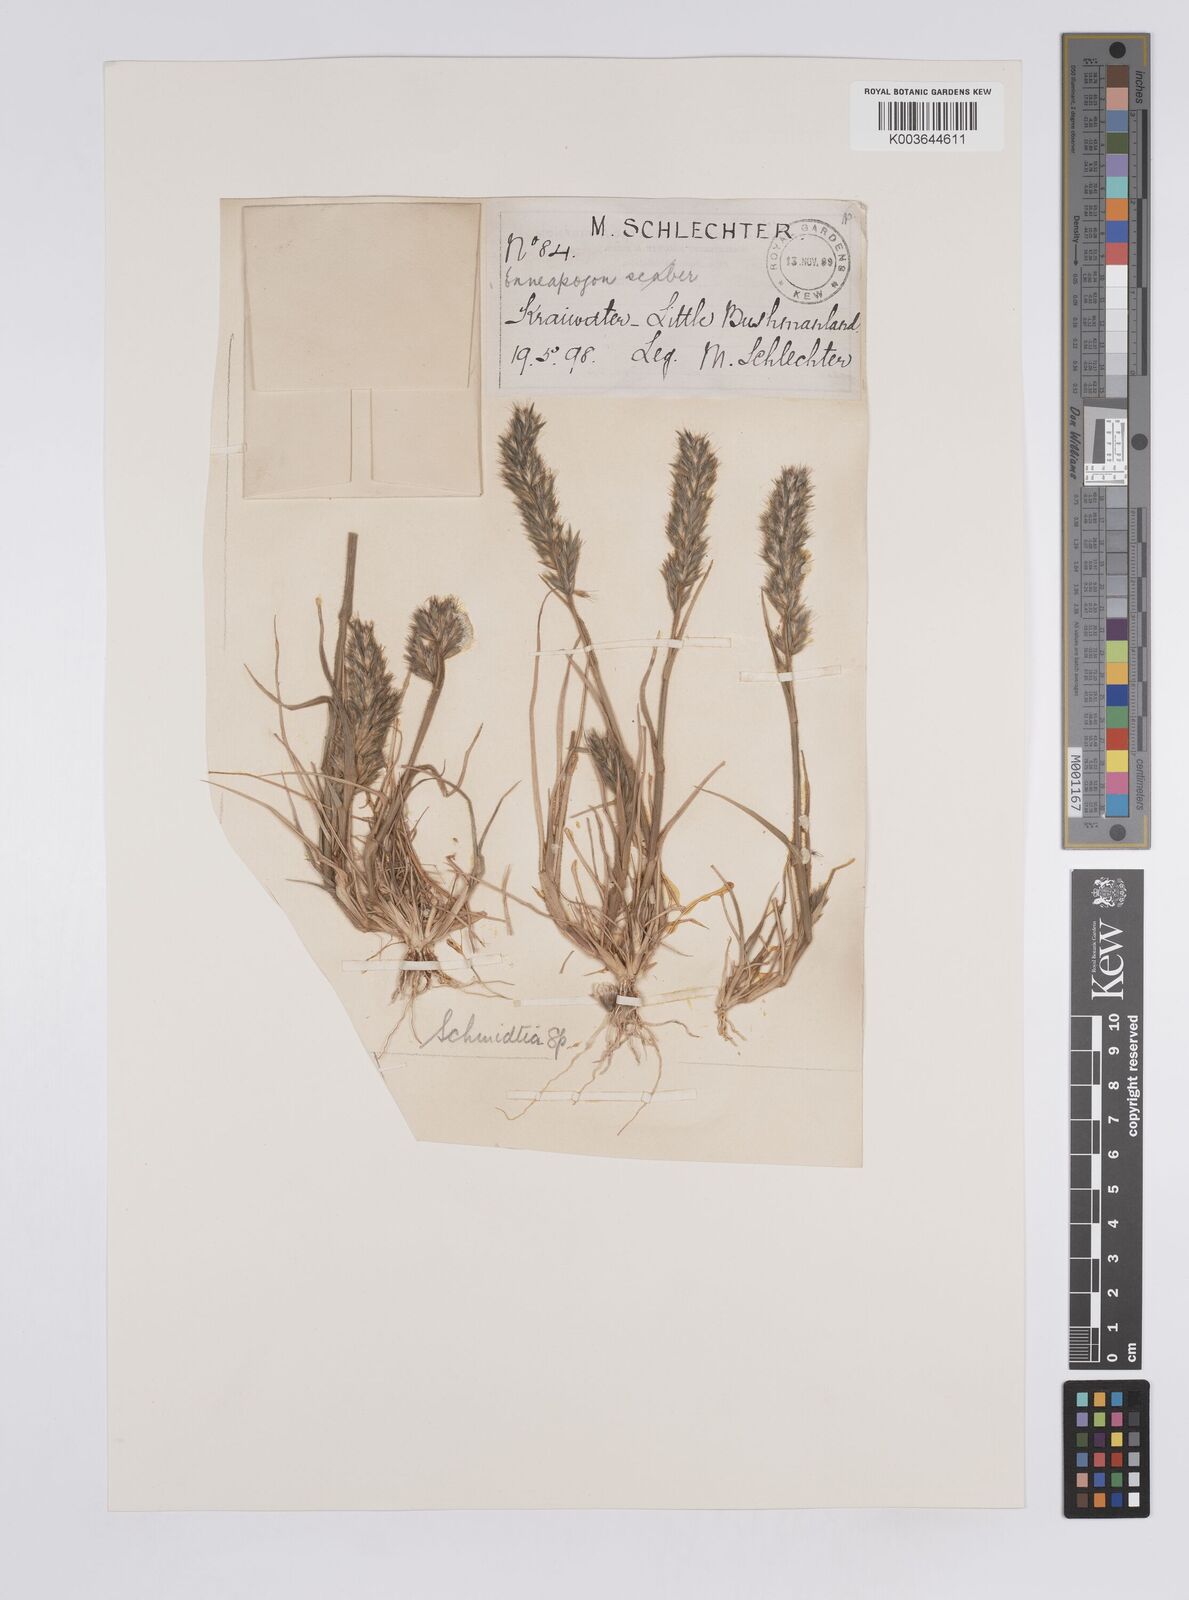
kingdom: Plantae
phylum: Tracheophyta
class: Liliopsida
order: Poales
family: Poaceae
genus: Schmidtia
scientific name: Schmidtia kalahariensis
